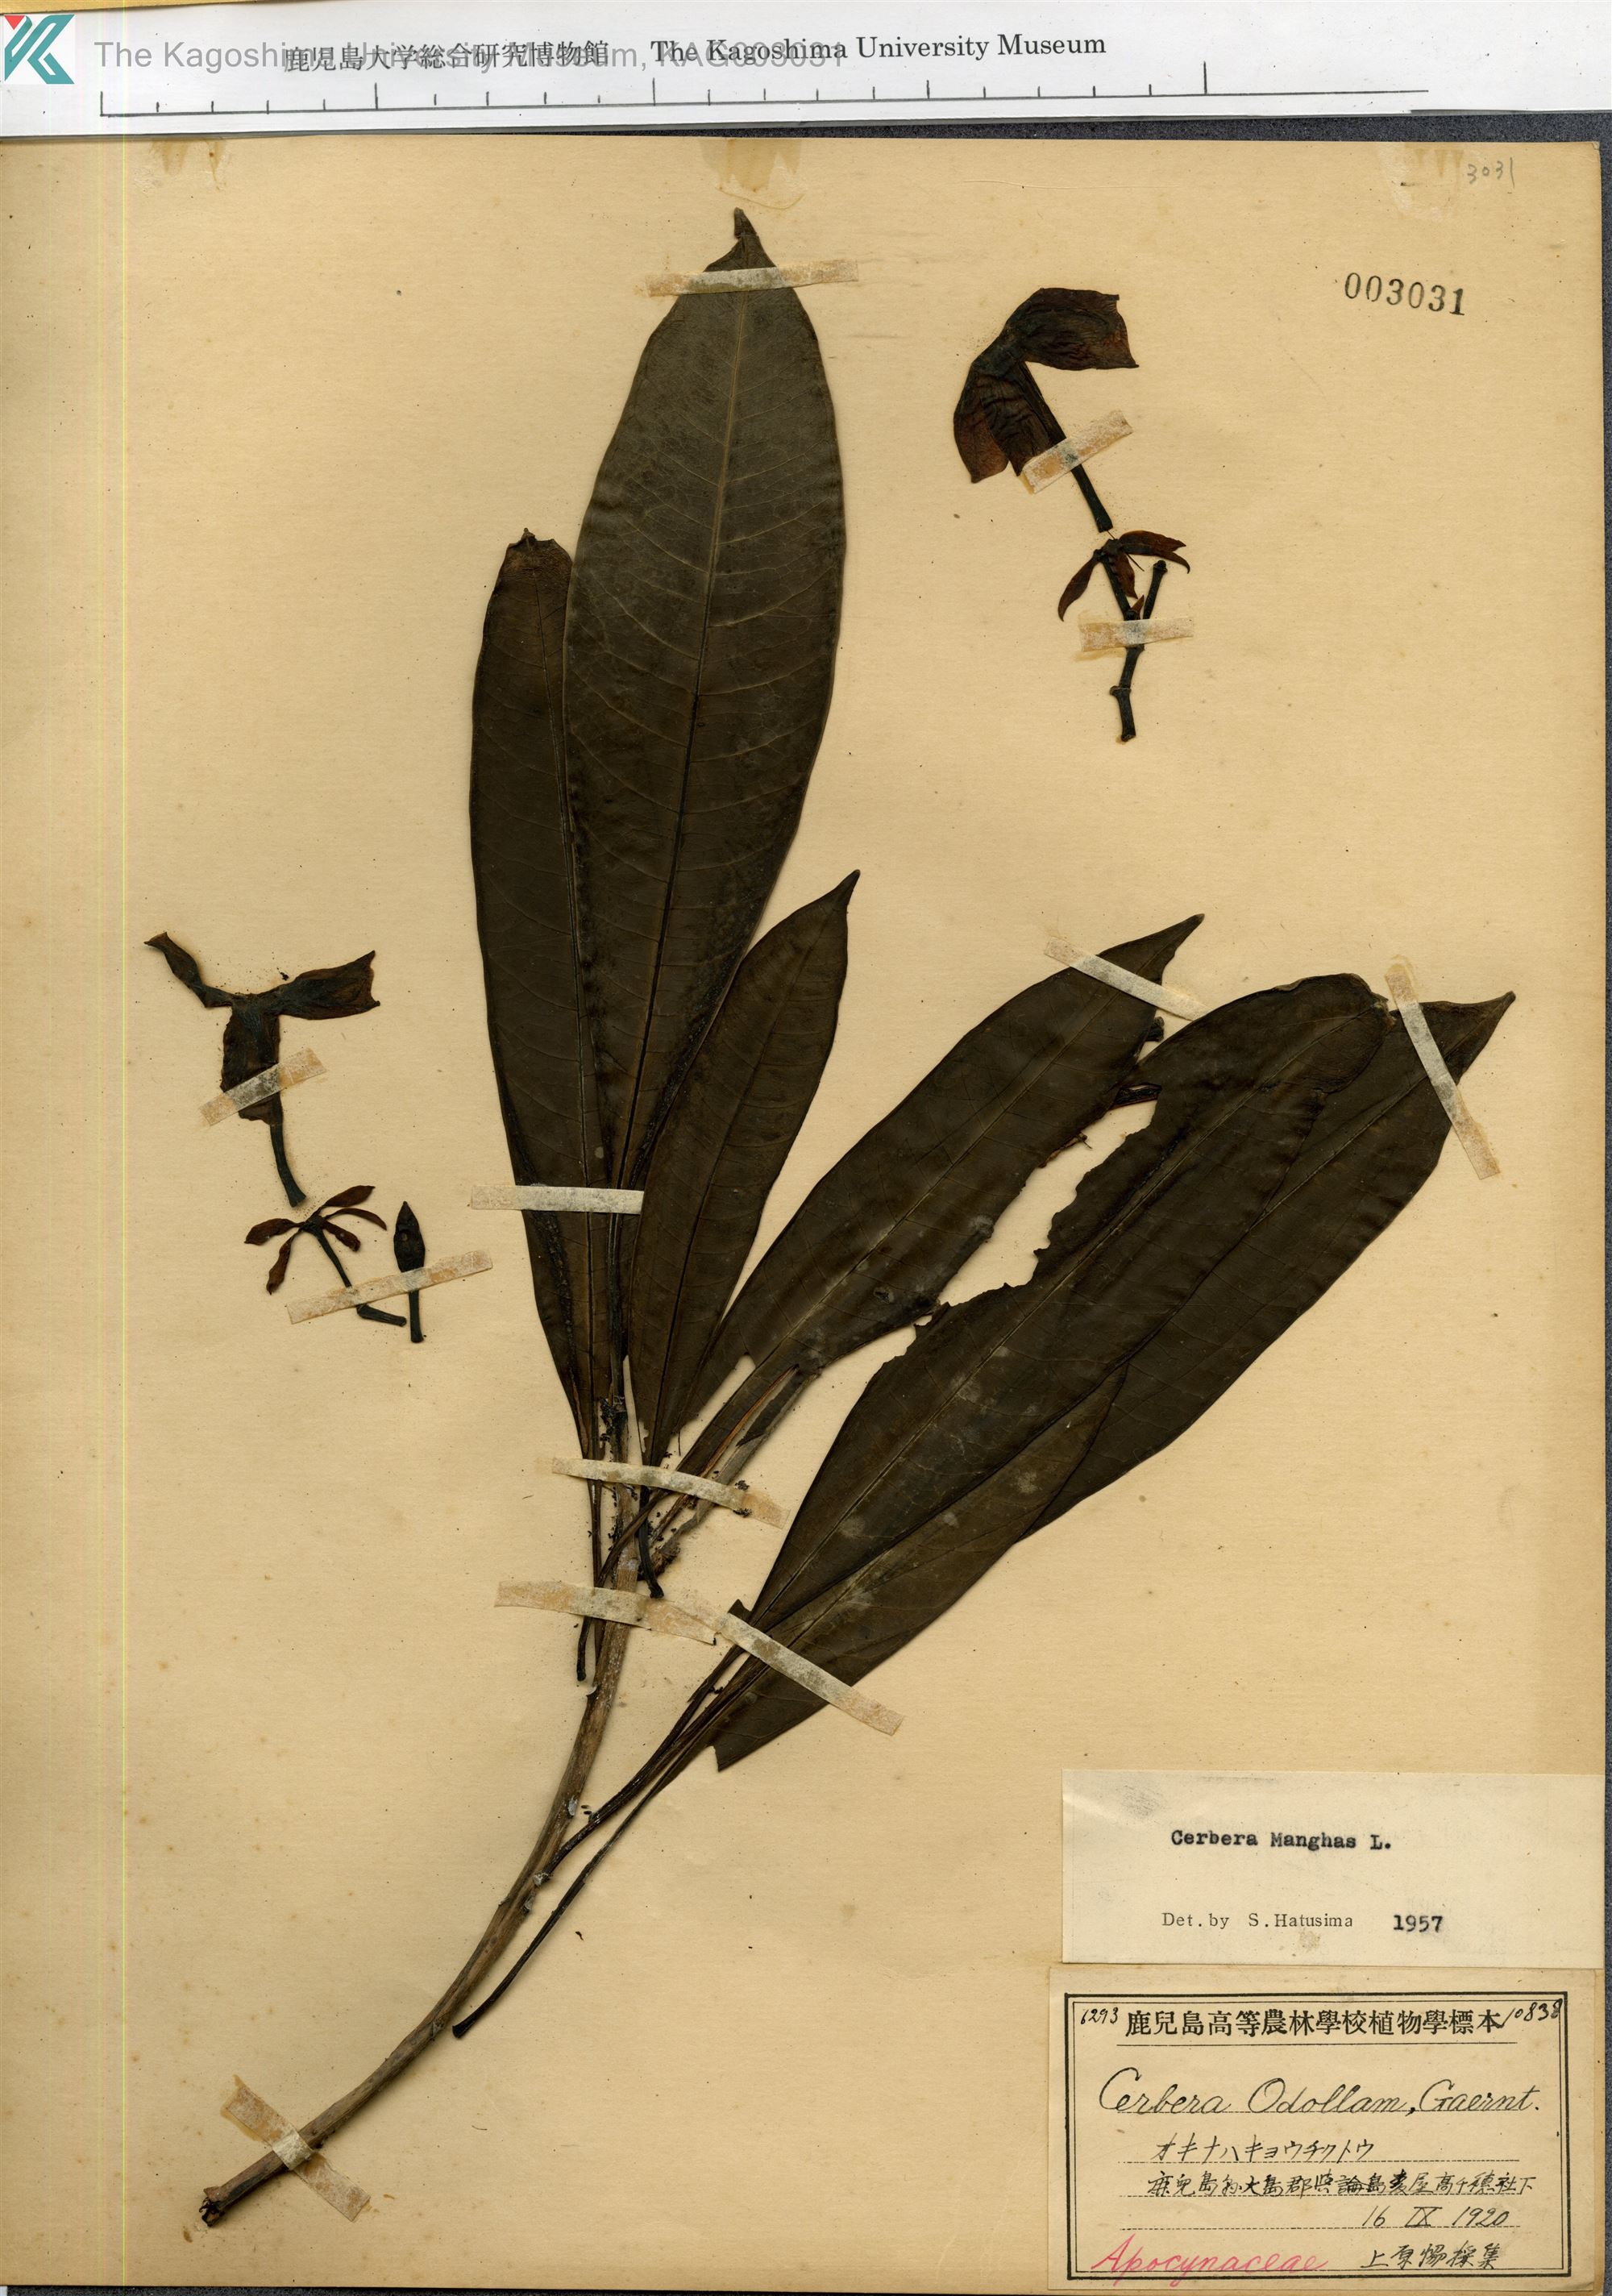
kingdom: Plantae
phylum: Tracheophyta
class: Magnoliopsida
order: Gentianales
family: Apocynaceae
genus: Cerbera
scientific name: Cerbera manghas
